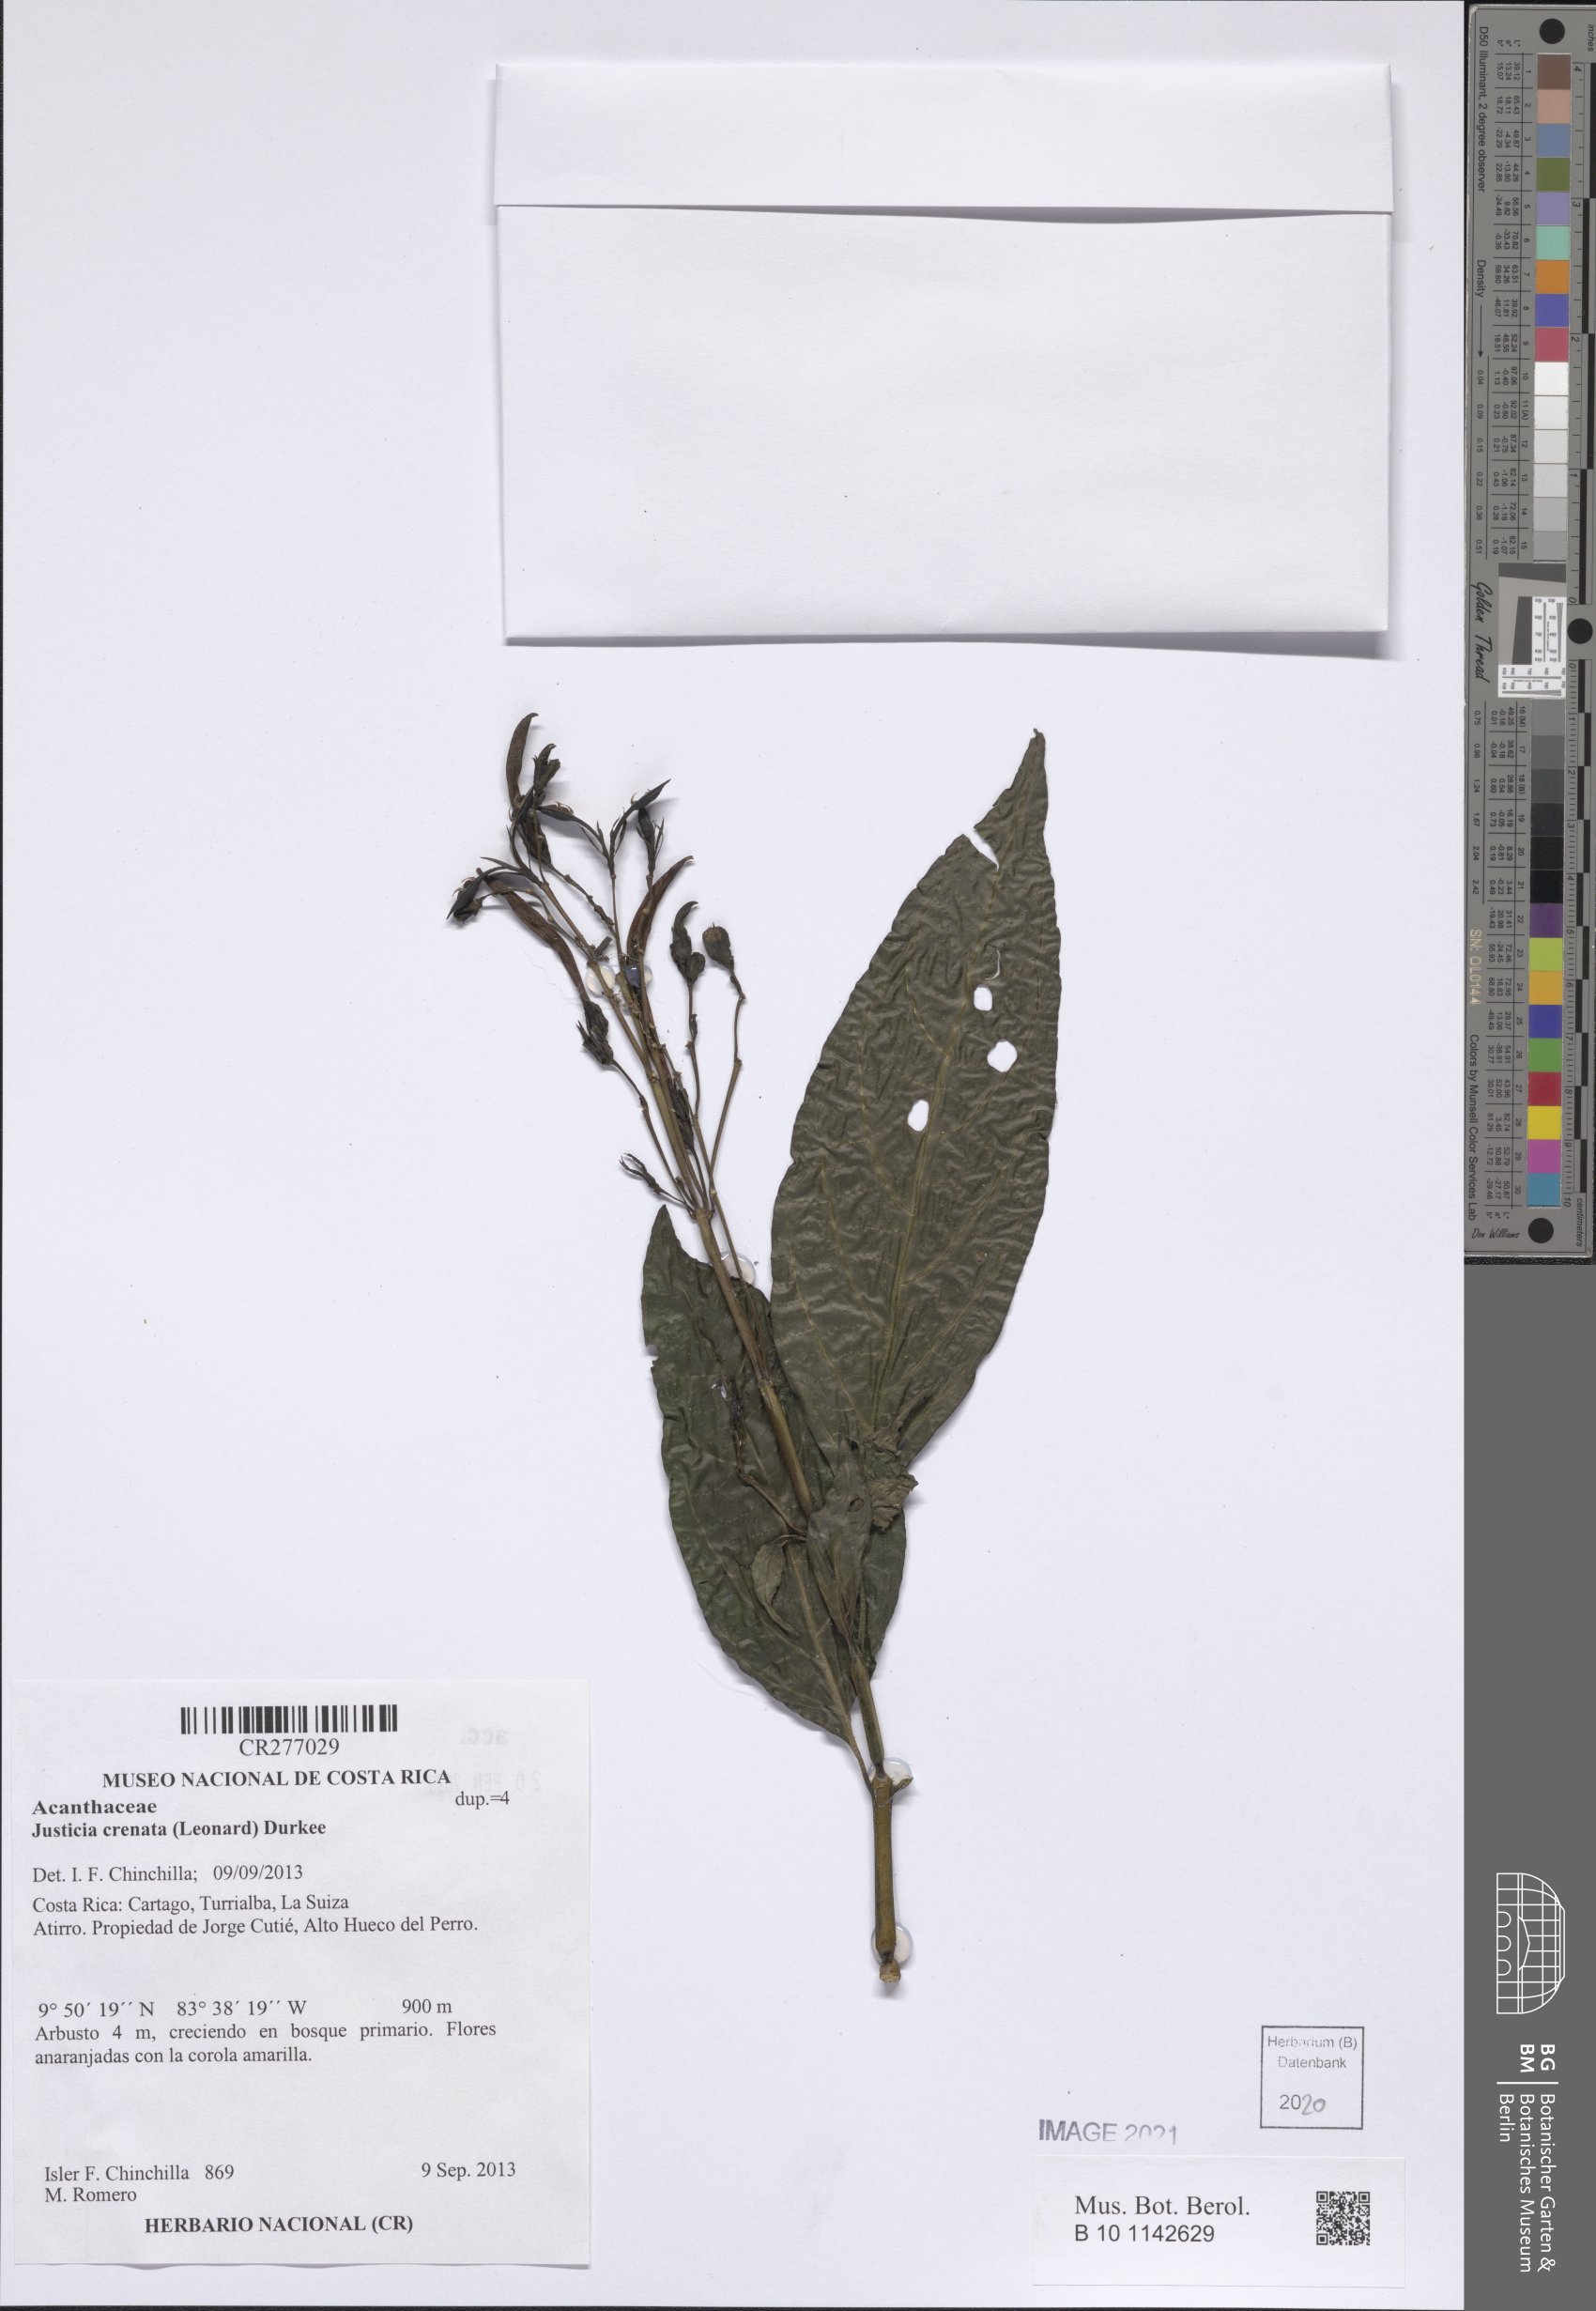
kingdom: Plantae
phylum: Tracheophyta
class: Magnoliopsida
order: Lamiales
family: Acanthaceae
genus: Justicia
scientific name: Justicia crenata
